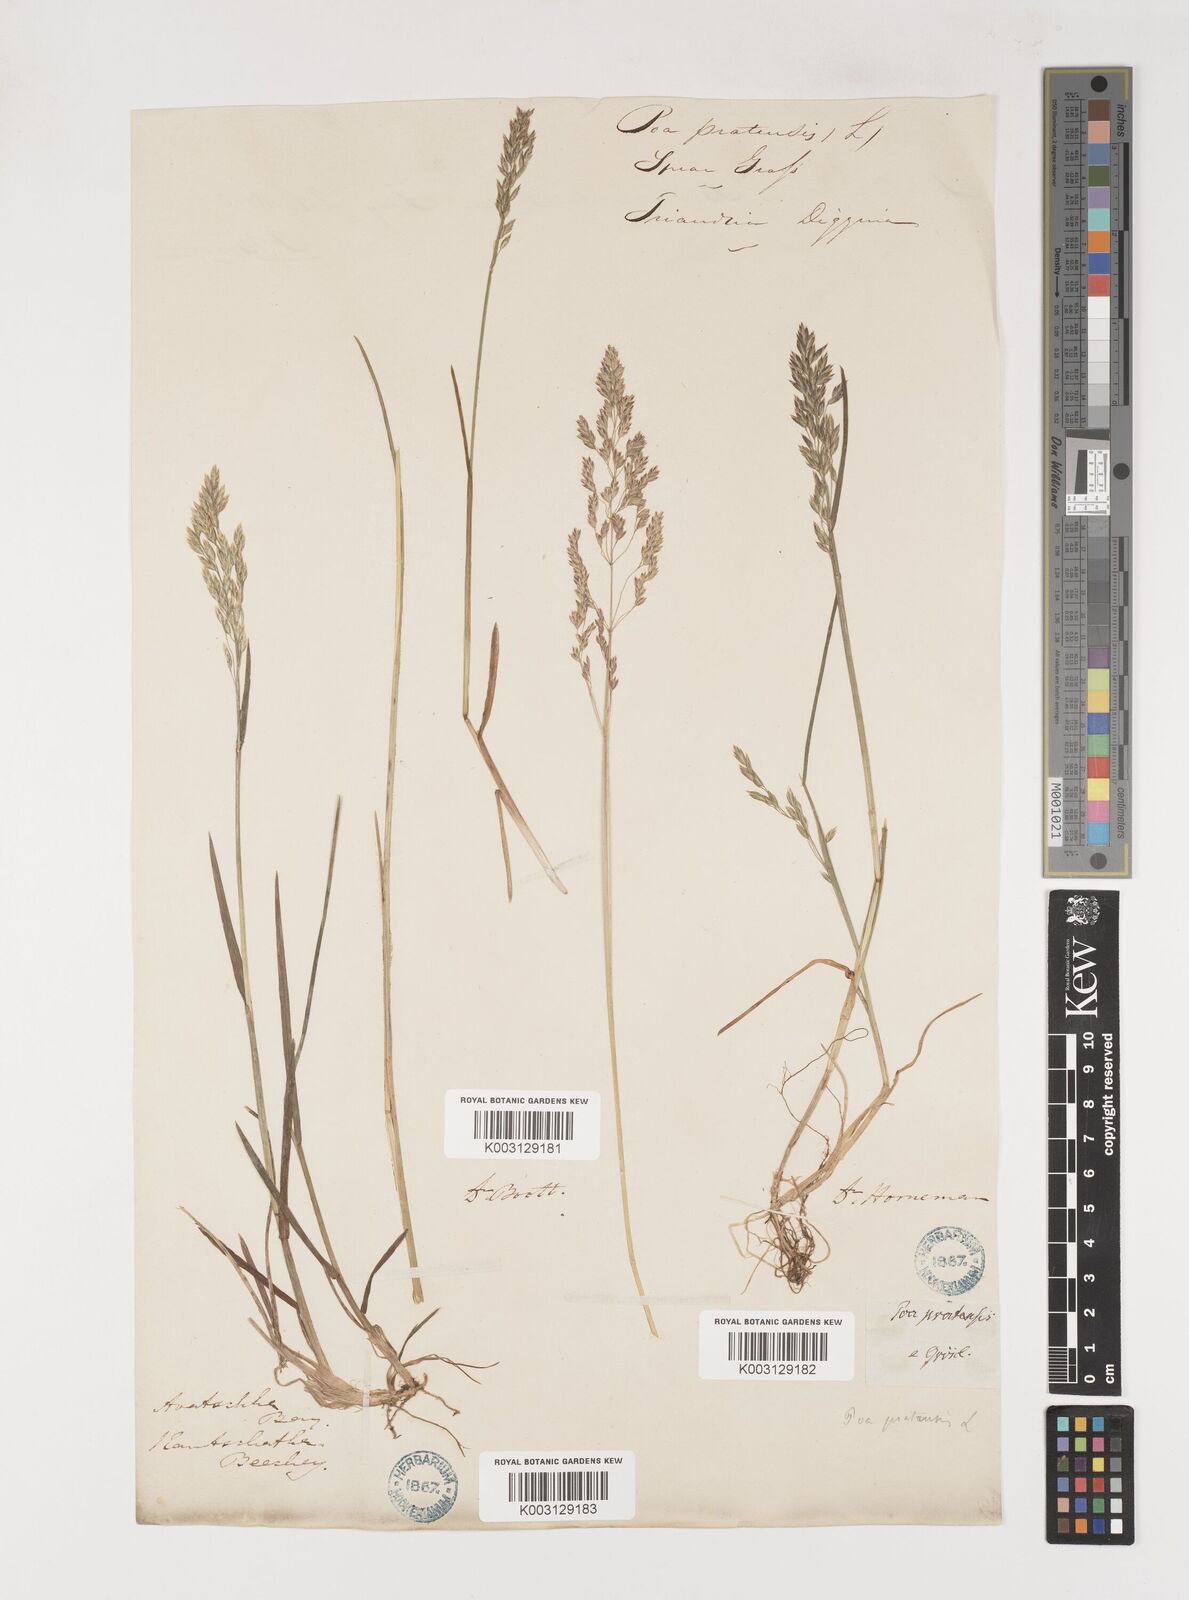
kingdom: Plantae
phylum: Tracheophyta
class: Liliopsida
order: Poales
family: Poaceae
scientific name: Poaceae
